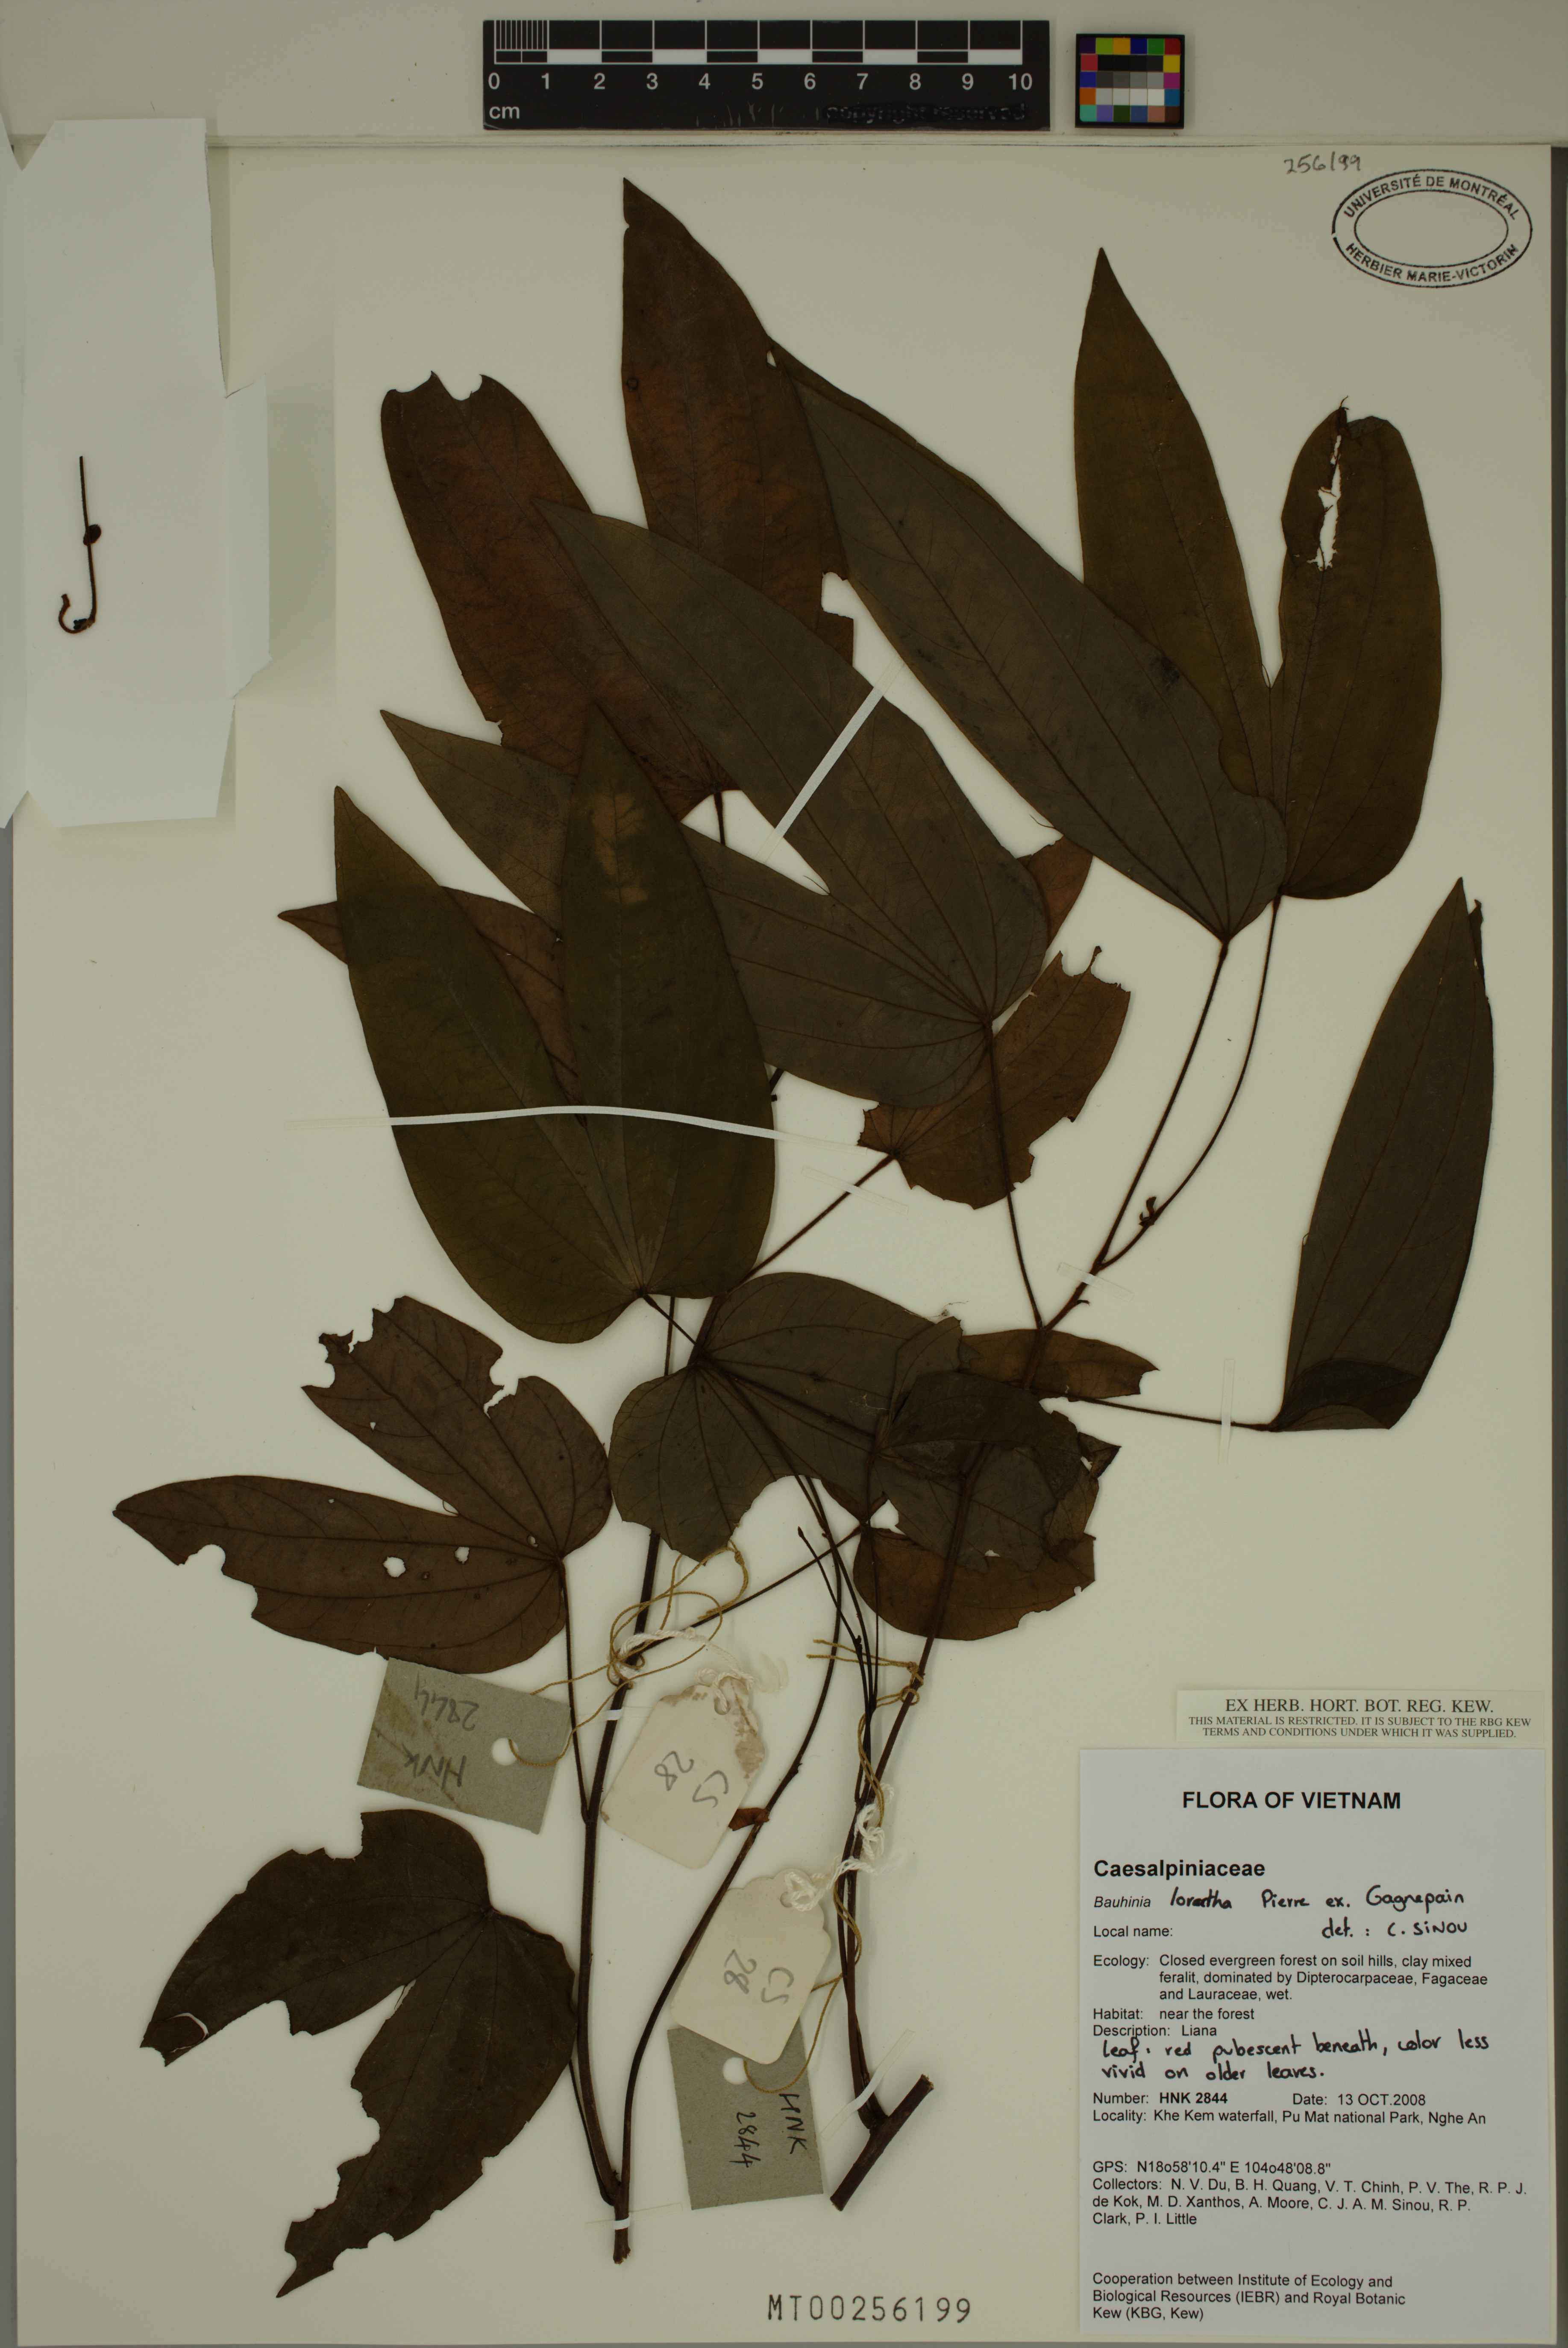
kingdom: Plantae
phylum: Tracheophyta
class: Magnoliopsida
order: Fabales
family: Fabaceae
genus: Bauhinia
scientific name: Bauhinia lorantha
